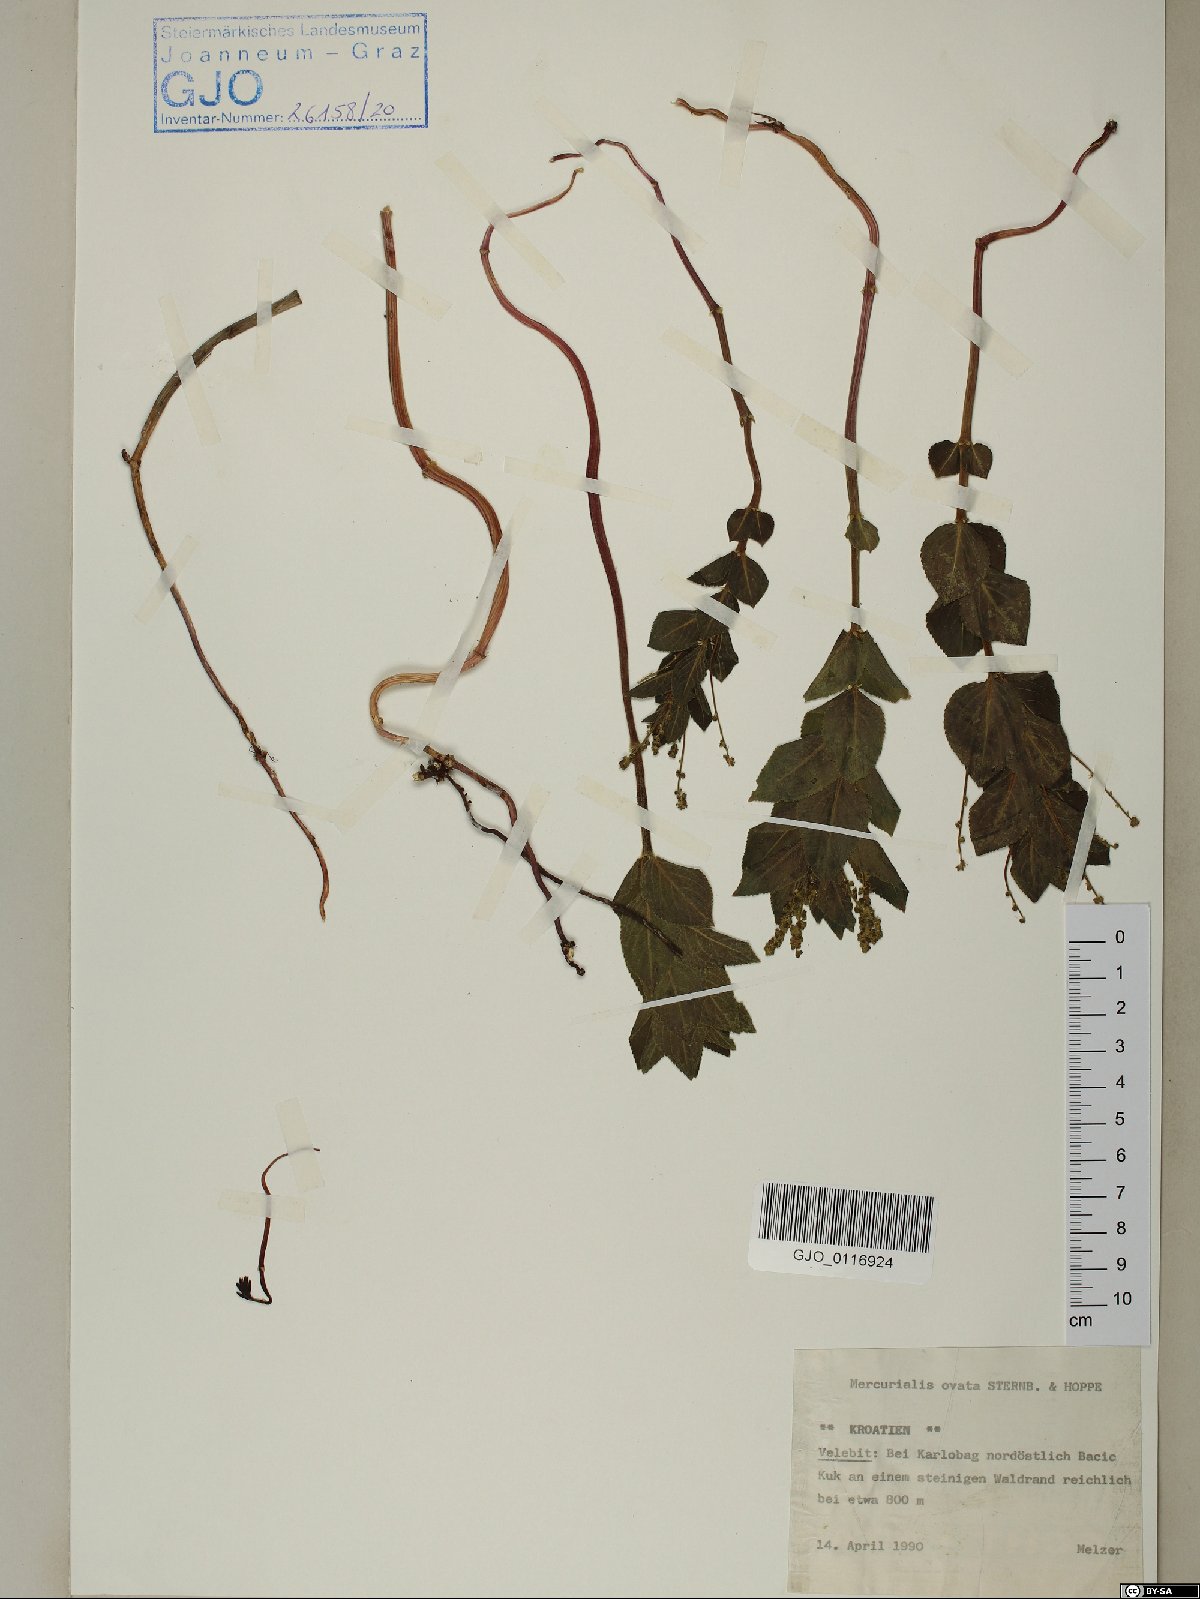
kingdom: Plantae
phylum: Tracheophyta
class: Magnoliopsida
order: Malpighiales
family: Euphorbiaceae
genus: Mercurialis
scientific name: Mercurialis ovata
